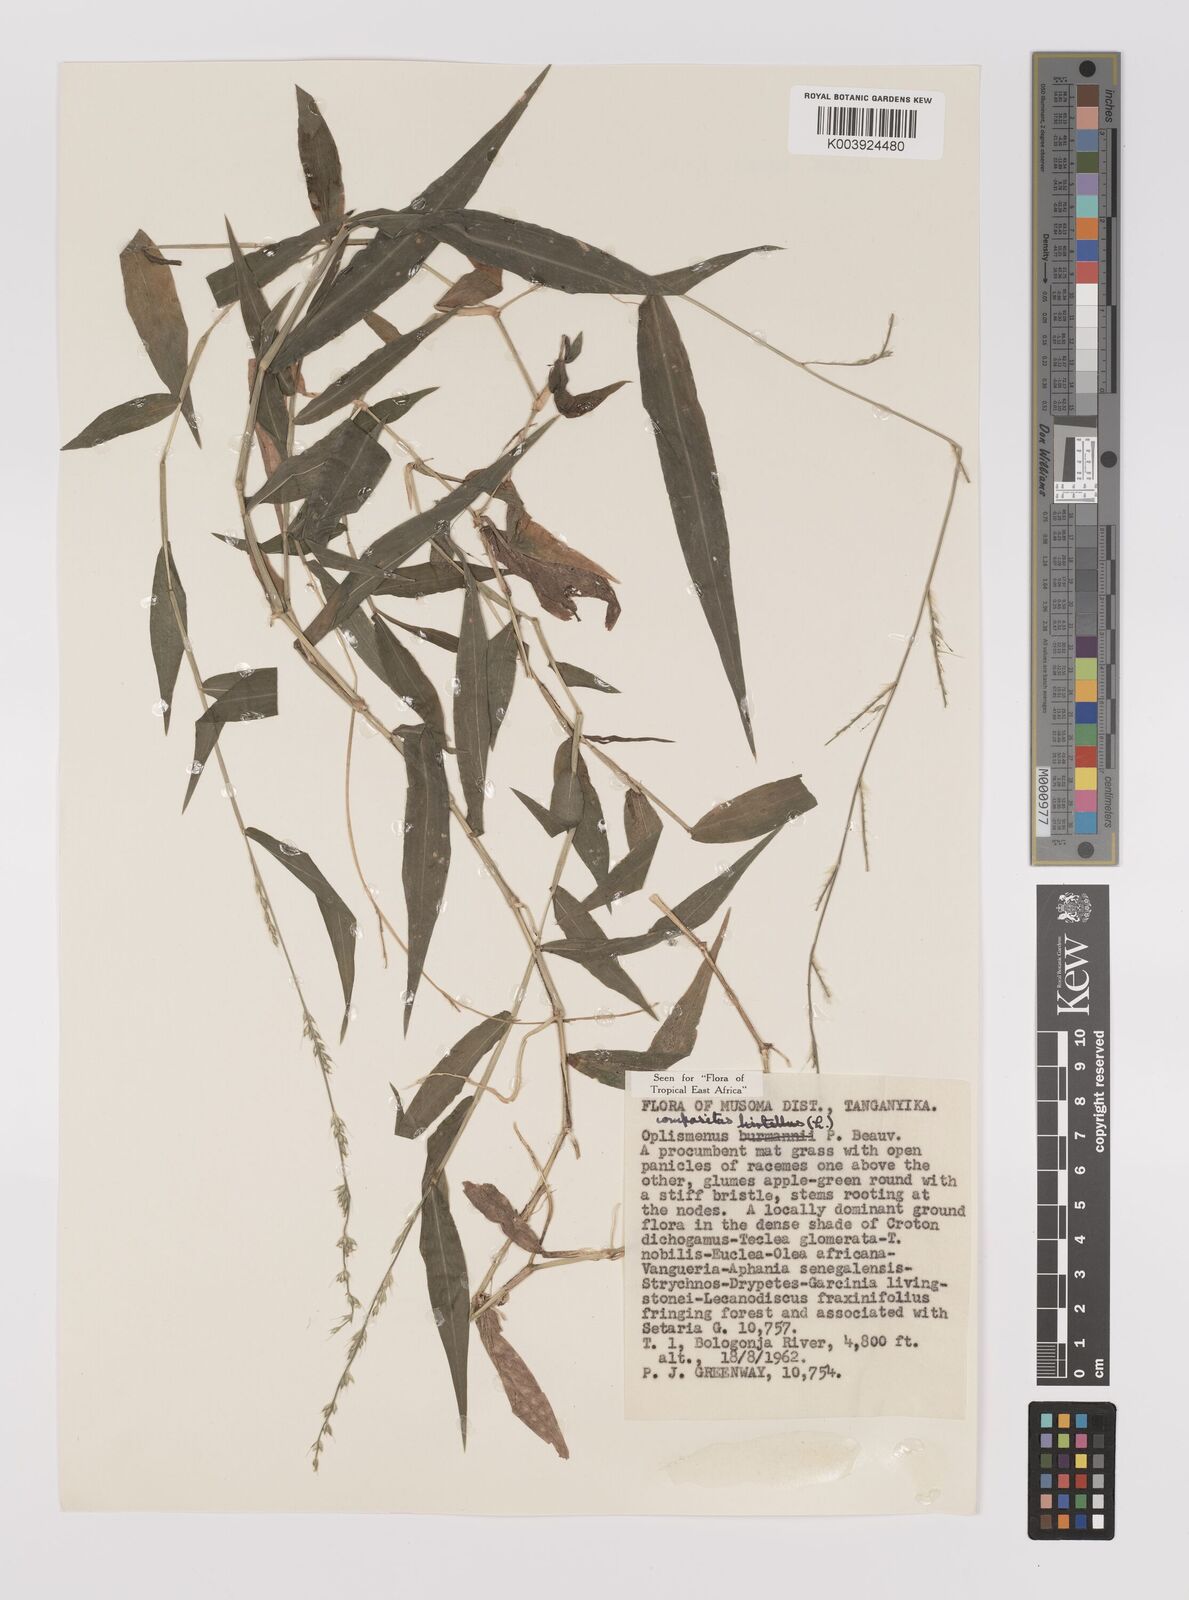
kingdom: Plantae
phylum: Tracheophyta
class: Liliopsida
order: Poales
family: Poaceae
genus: Oplismenus
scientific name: Oplismenus compositus
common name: Running mountain grass
